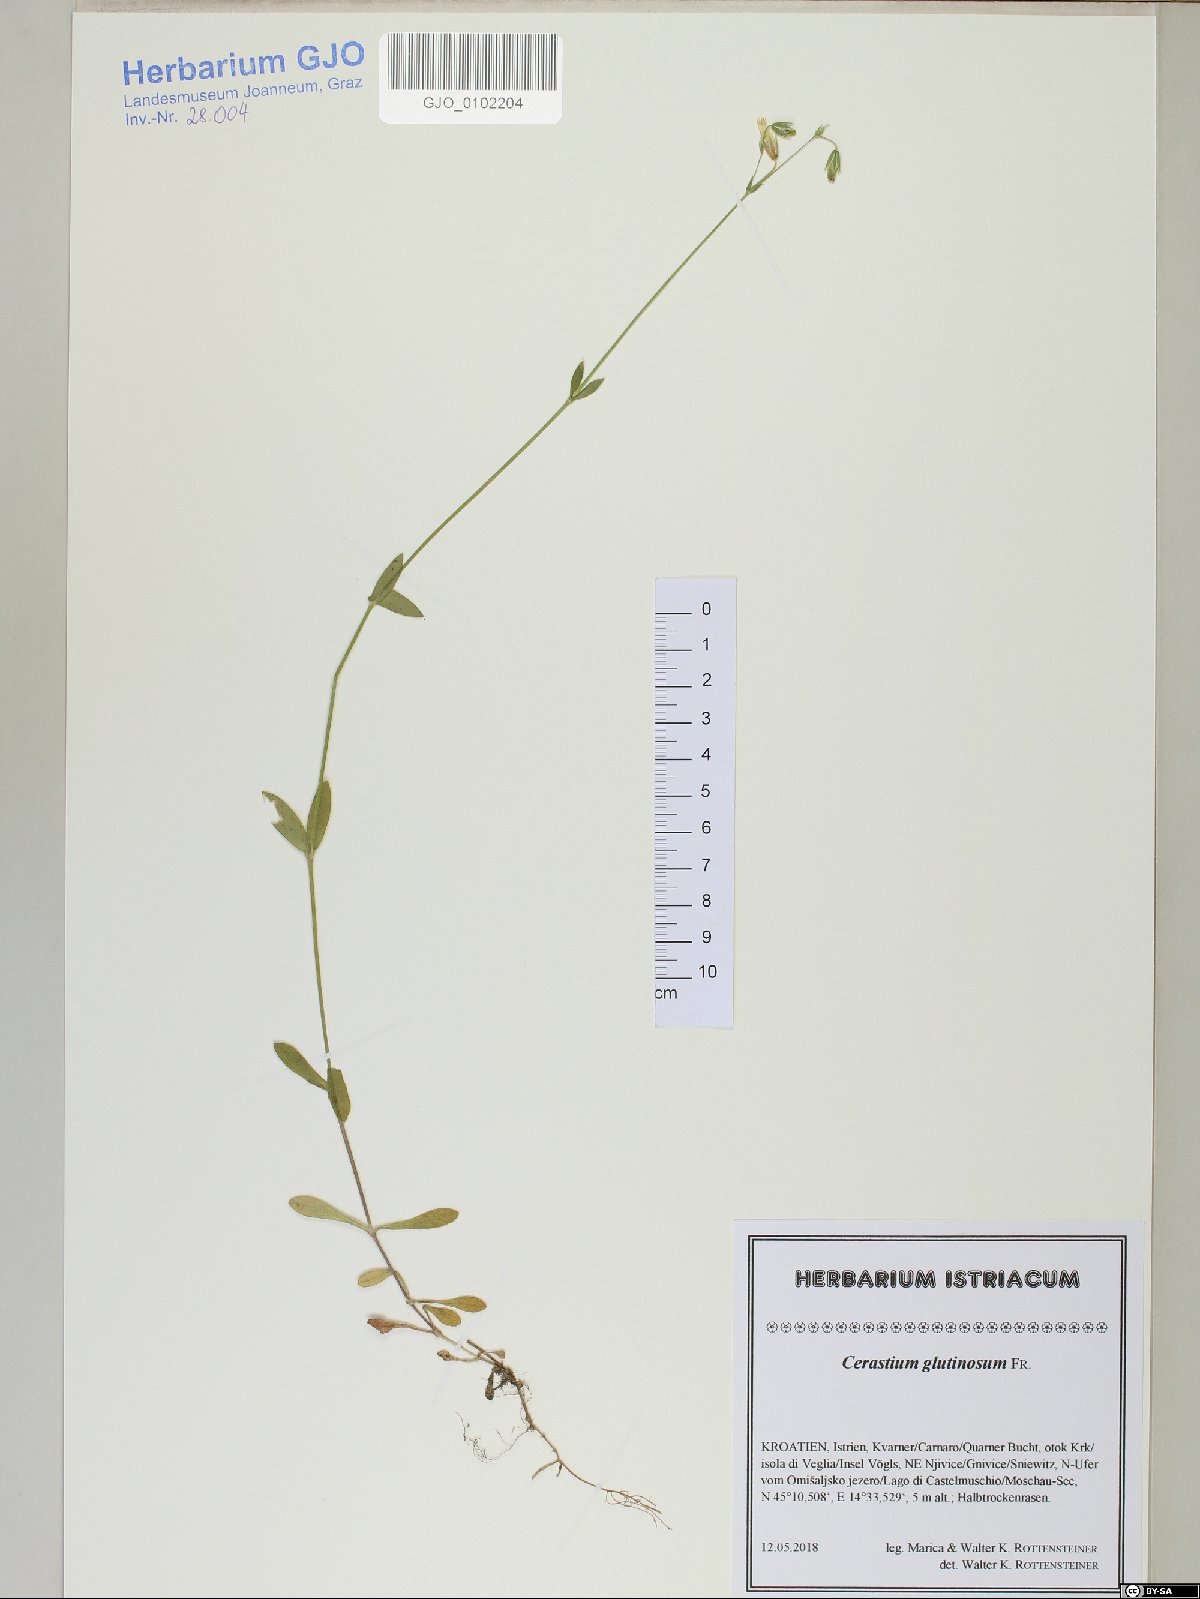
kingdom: Plantae
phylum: Tracheophyta
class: Magnoliopsida
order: Caryophyllales
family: Caryophyllaceae
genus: Cerastium
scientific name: Cerastium glutinosum
